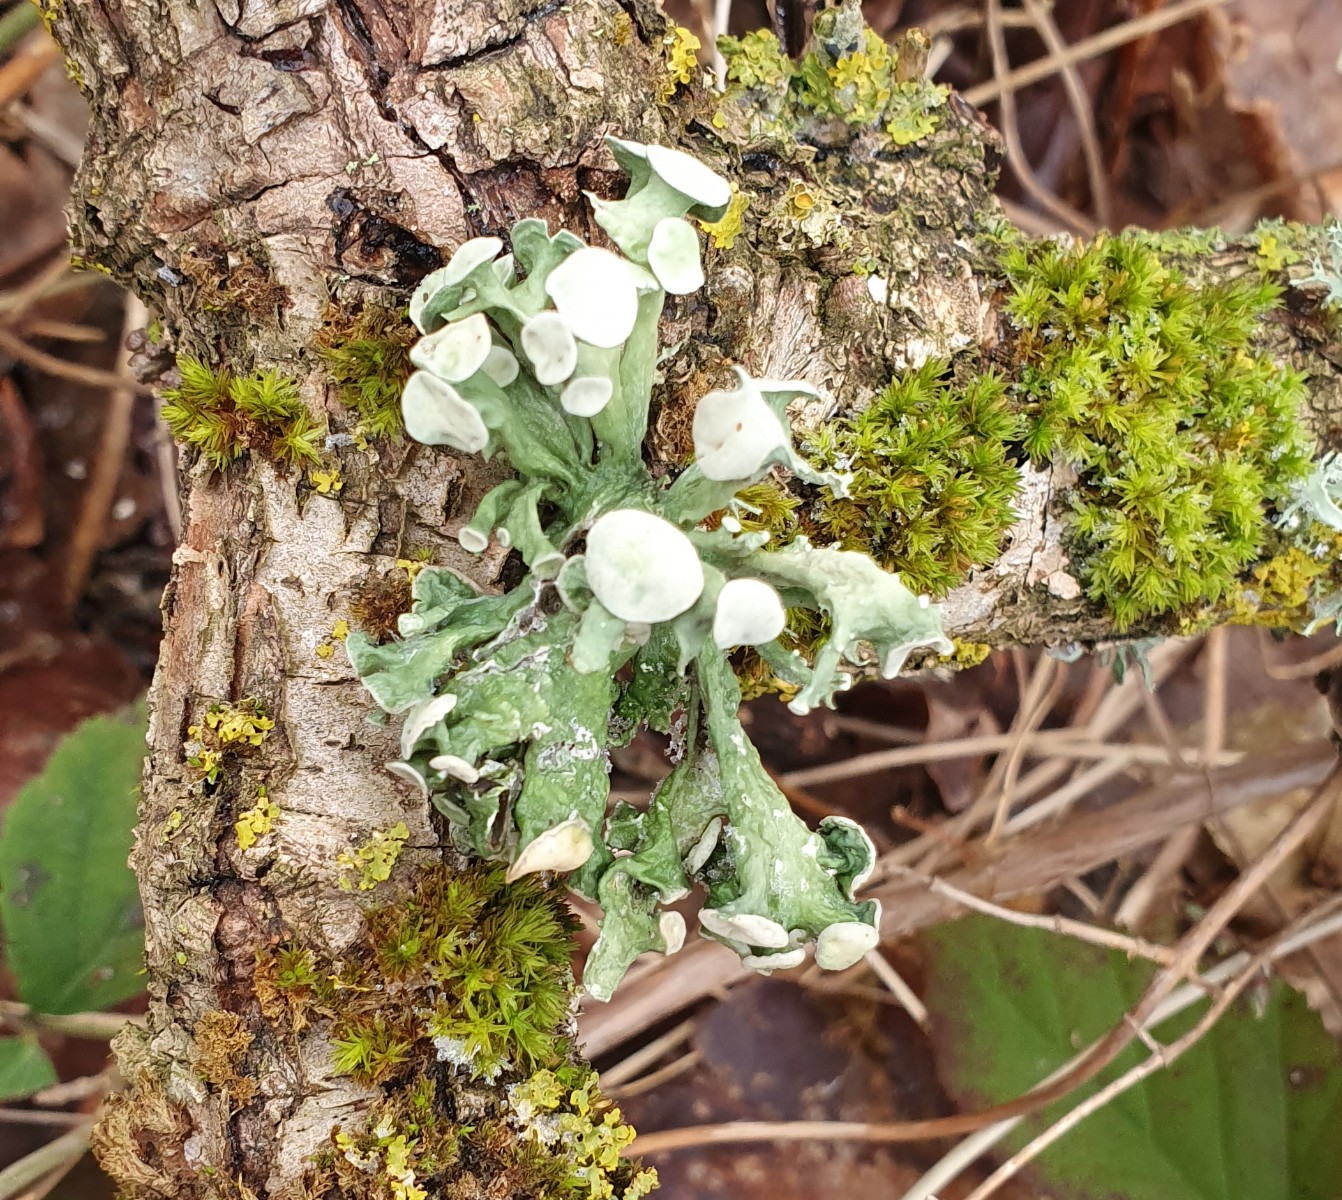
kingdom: Fungi
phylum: Ascomycota
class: Lecanoromycetes
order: Lecanorales
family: Ramalinaceae
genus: Ramalina
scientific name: Ramalina fastigiata
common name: tue-grenlav
